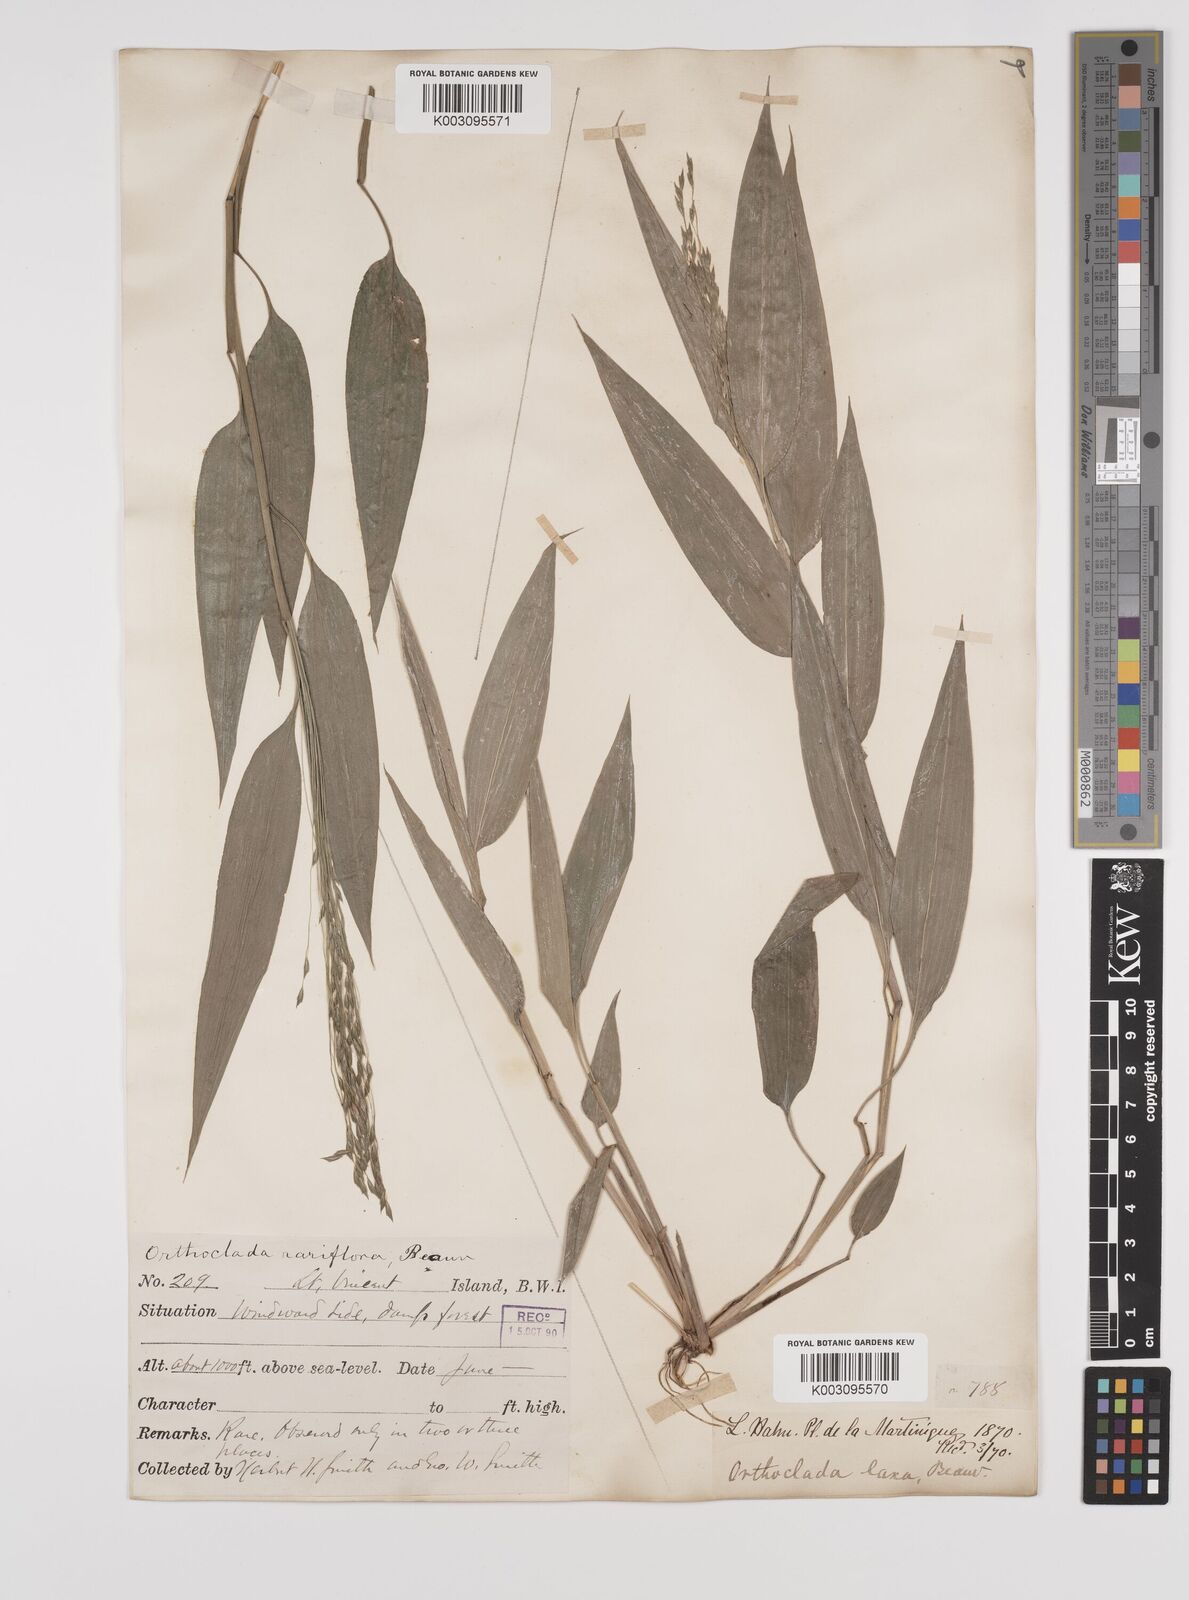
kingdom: Plantae
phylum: Tracheophyta
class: Liliopsida
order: Poales
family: Poaceae
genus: Orthoclada
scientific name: Orthoclada laxa
